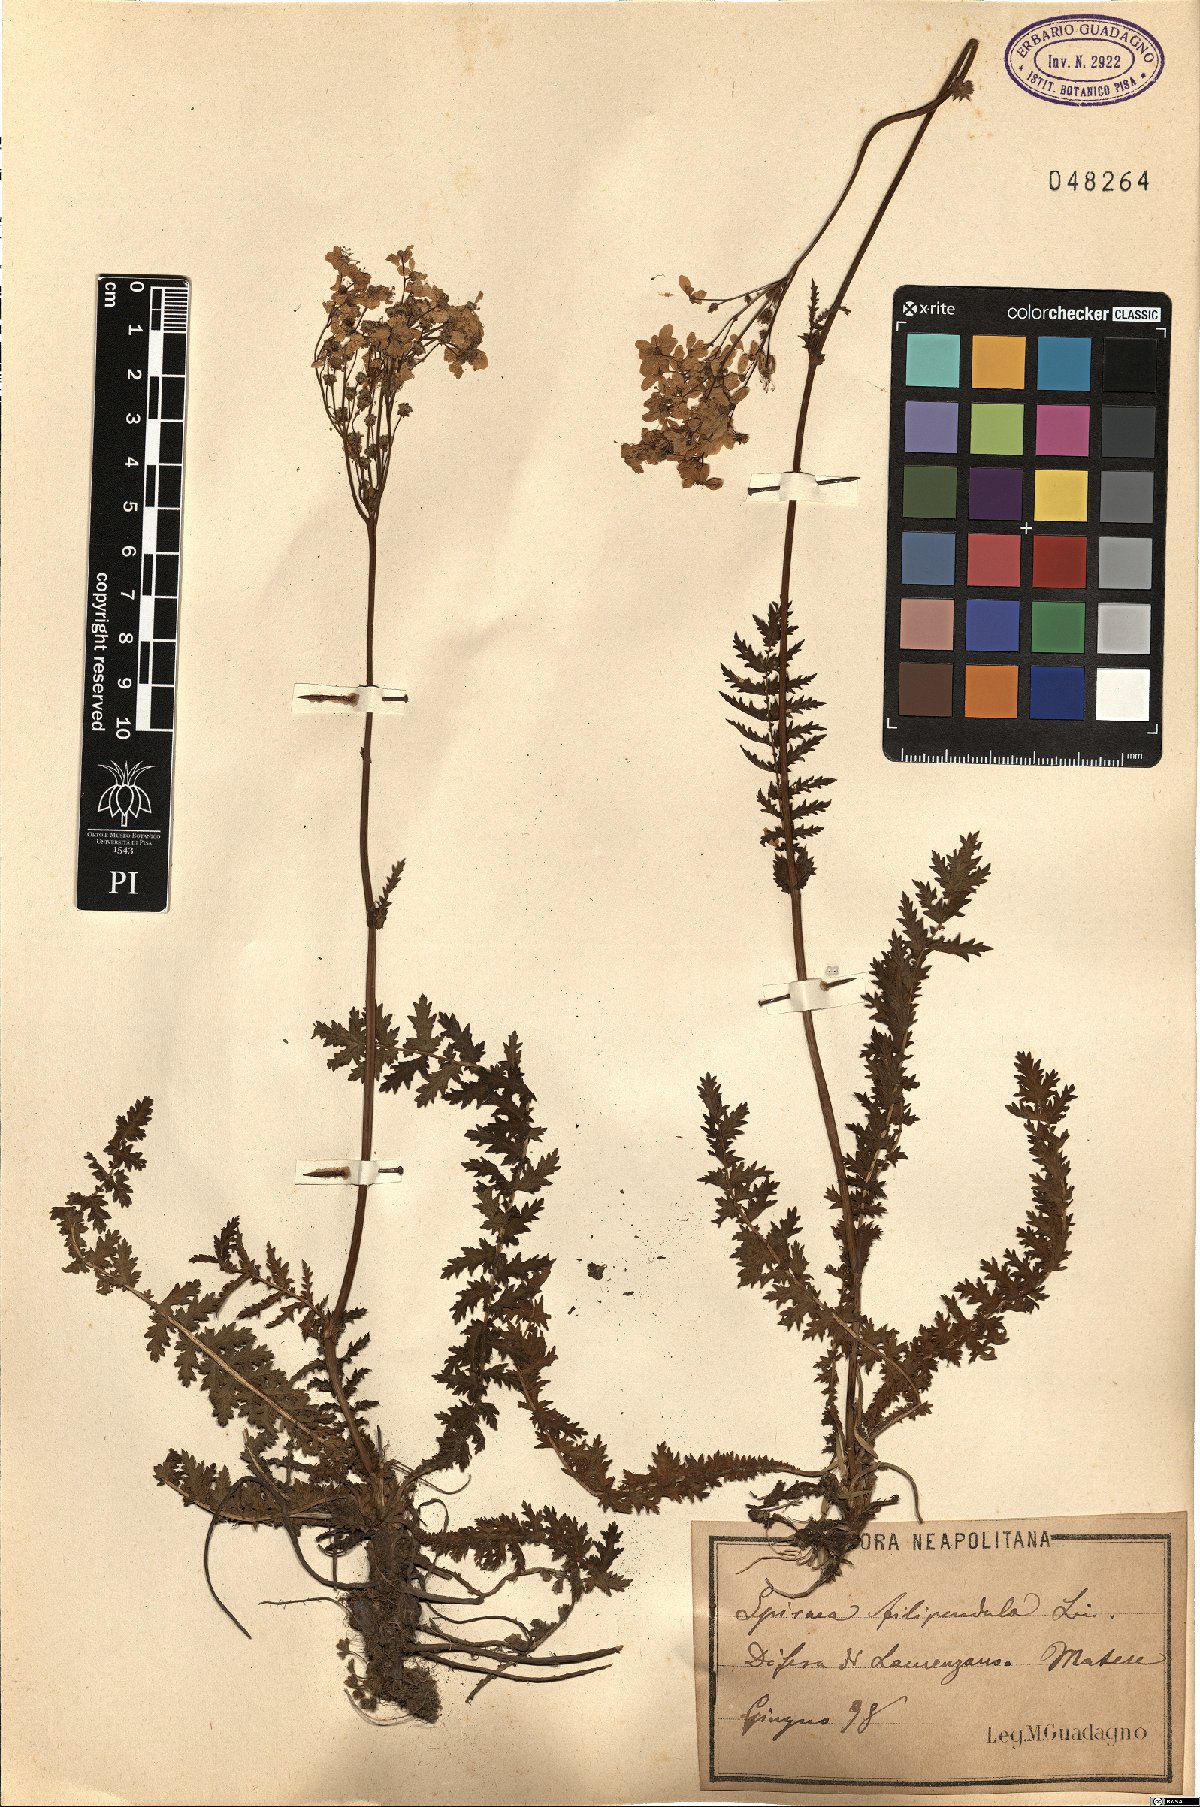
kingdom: Plantae
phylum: Tracheophyta
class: Magnoliopsida
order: Rosales
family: Rosaceae
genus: Filipendula
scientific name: Filipendula vulgaris
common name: Dropwort
